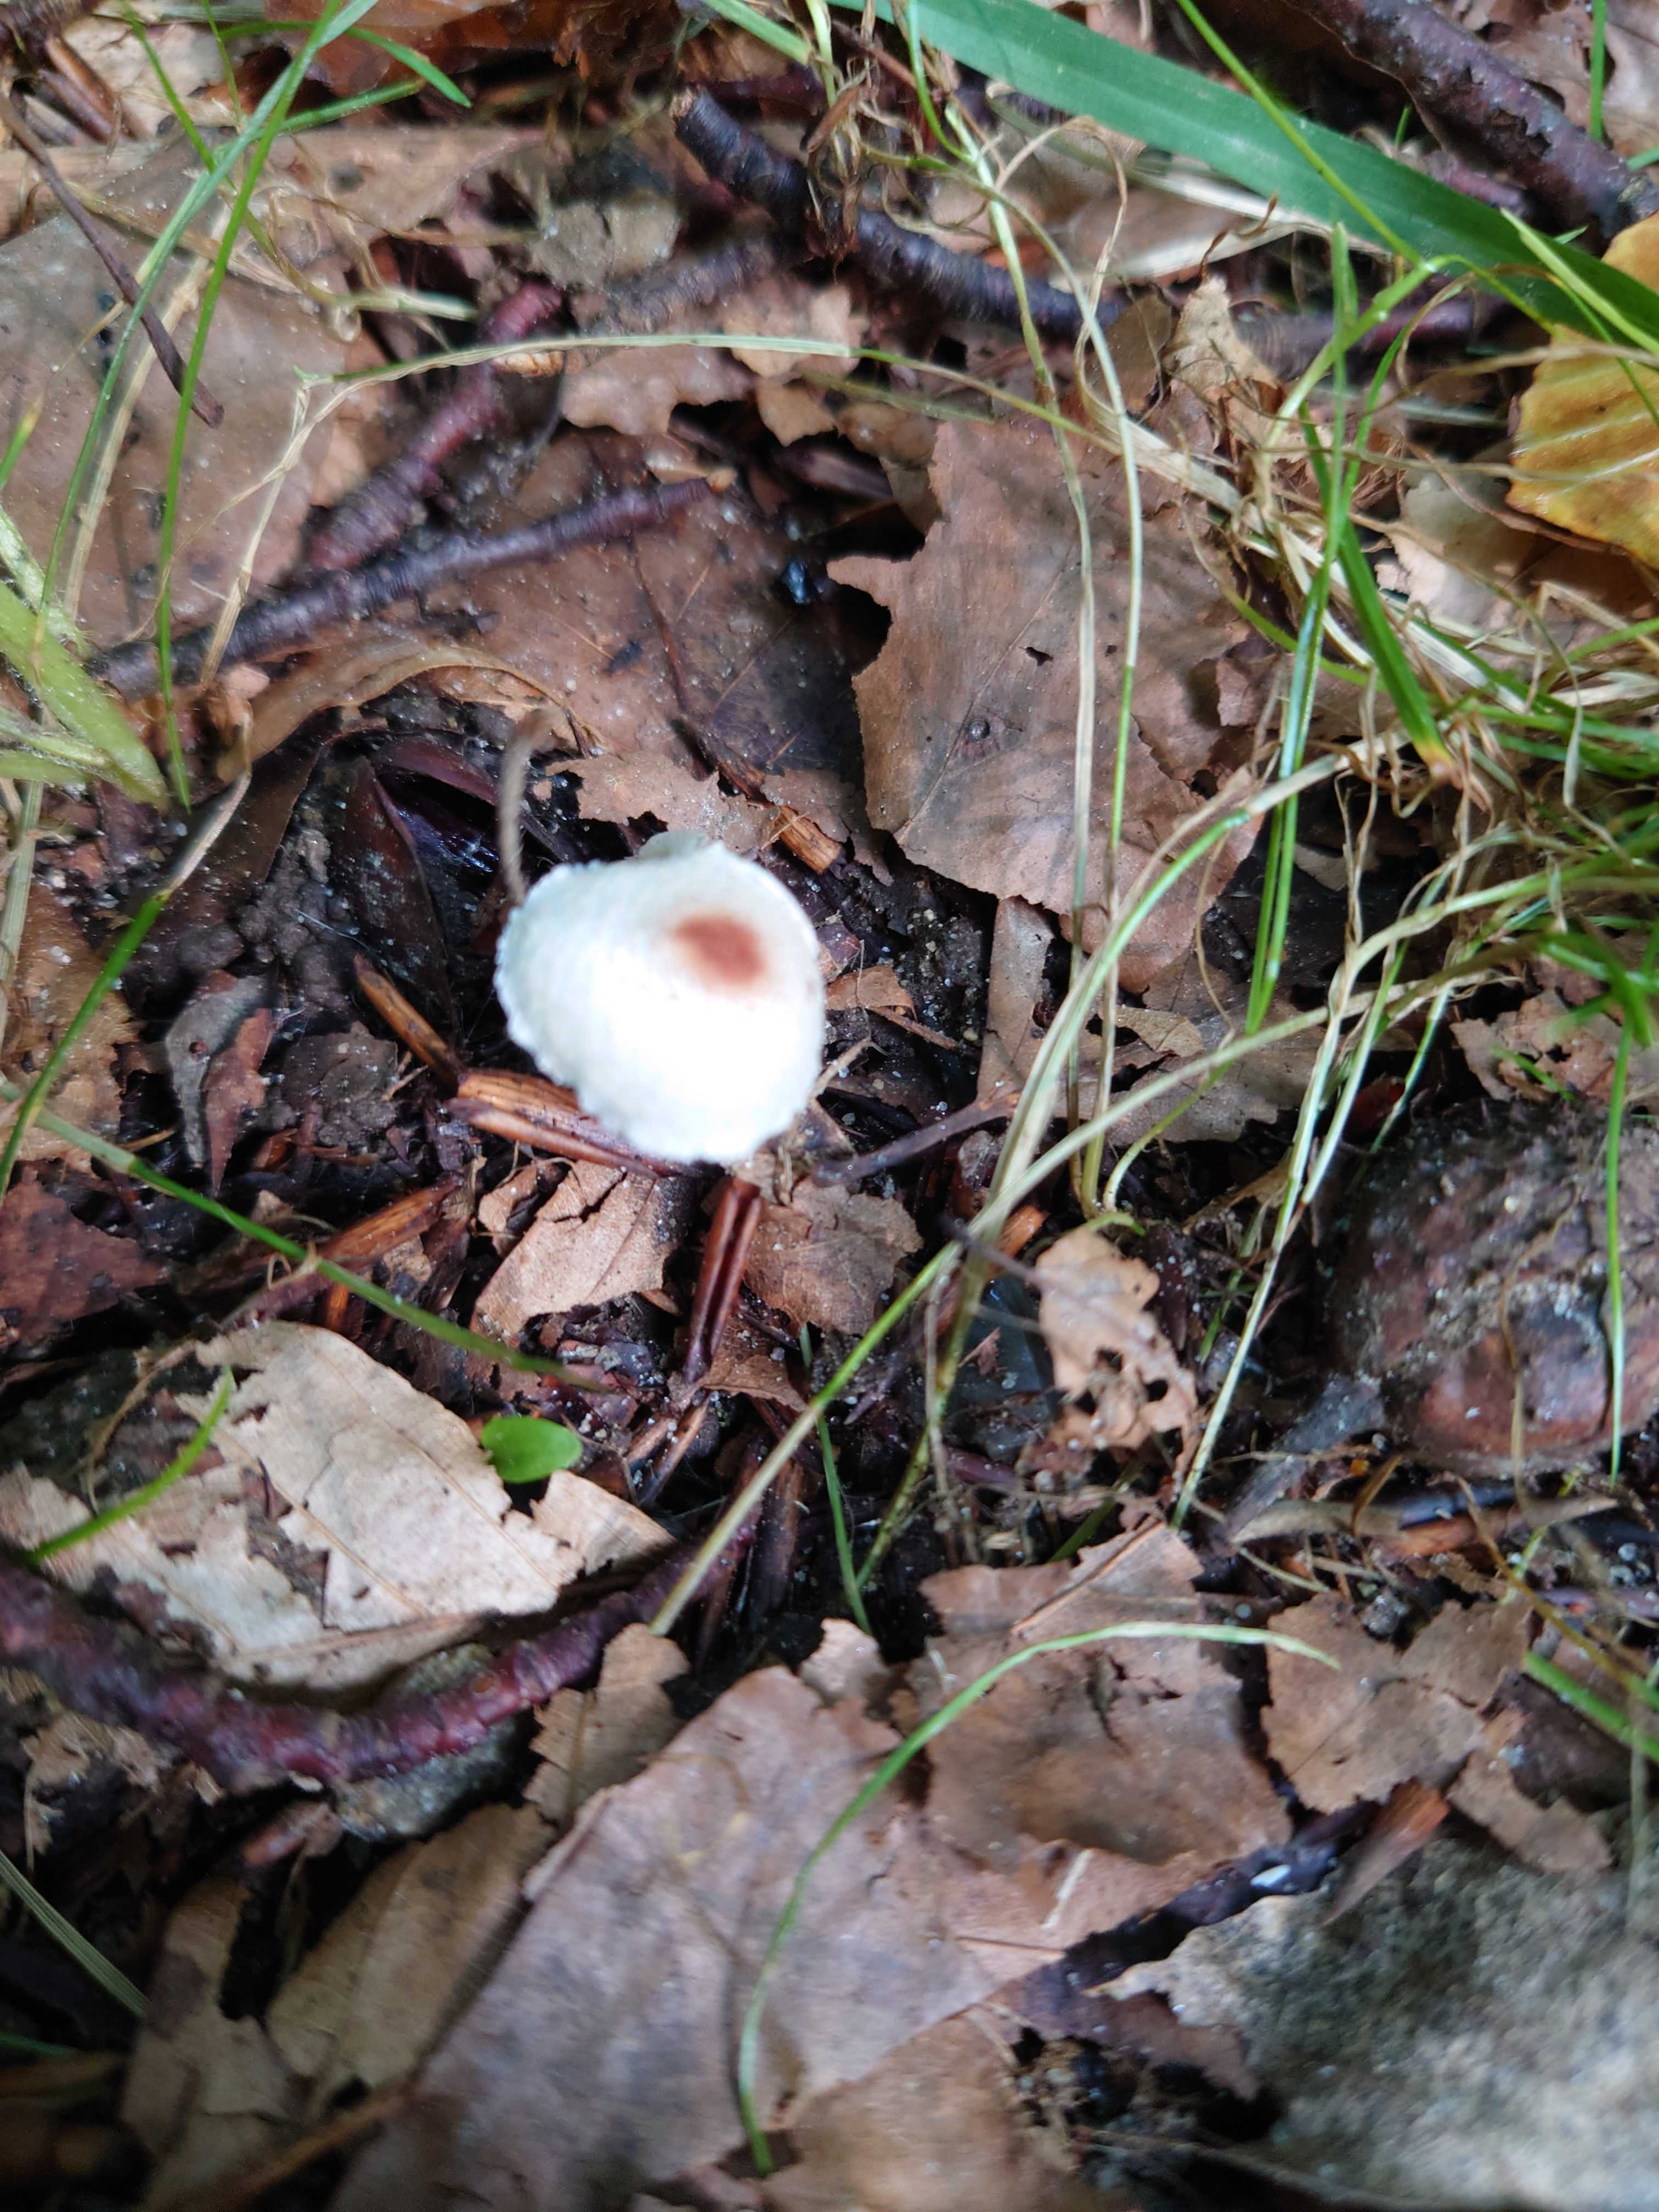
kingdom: Fungi
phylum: Basidiomycota
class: Agaricomycetes
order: Agaricales
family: Agaricaceae
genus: Lepiota
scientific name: Lepiota cristata
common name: stinkende parasolhat
